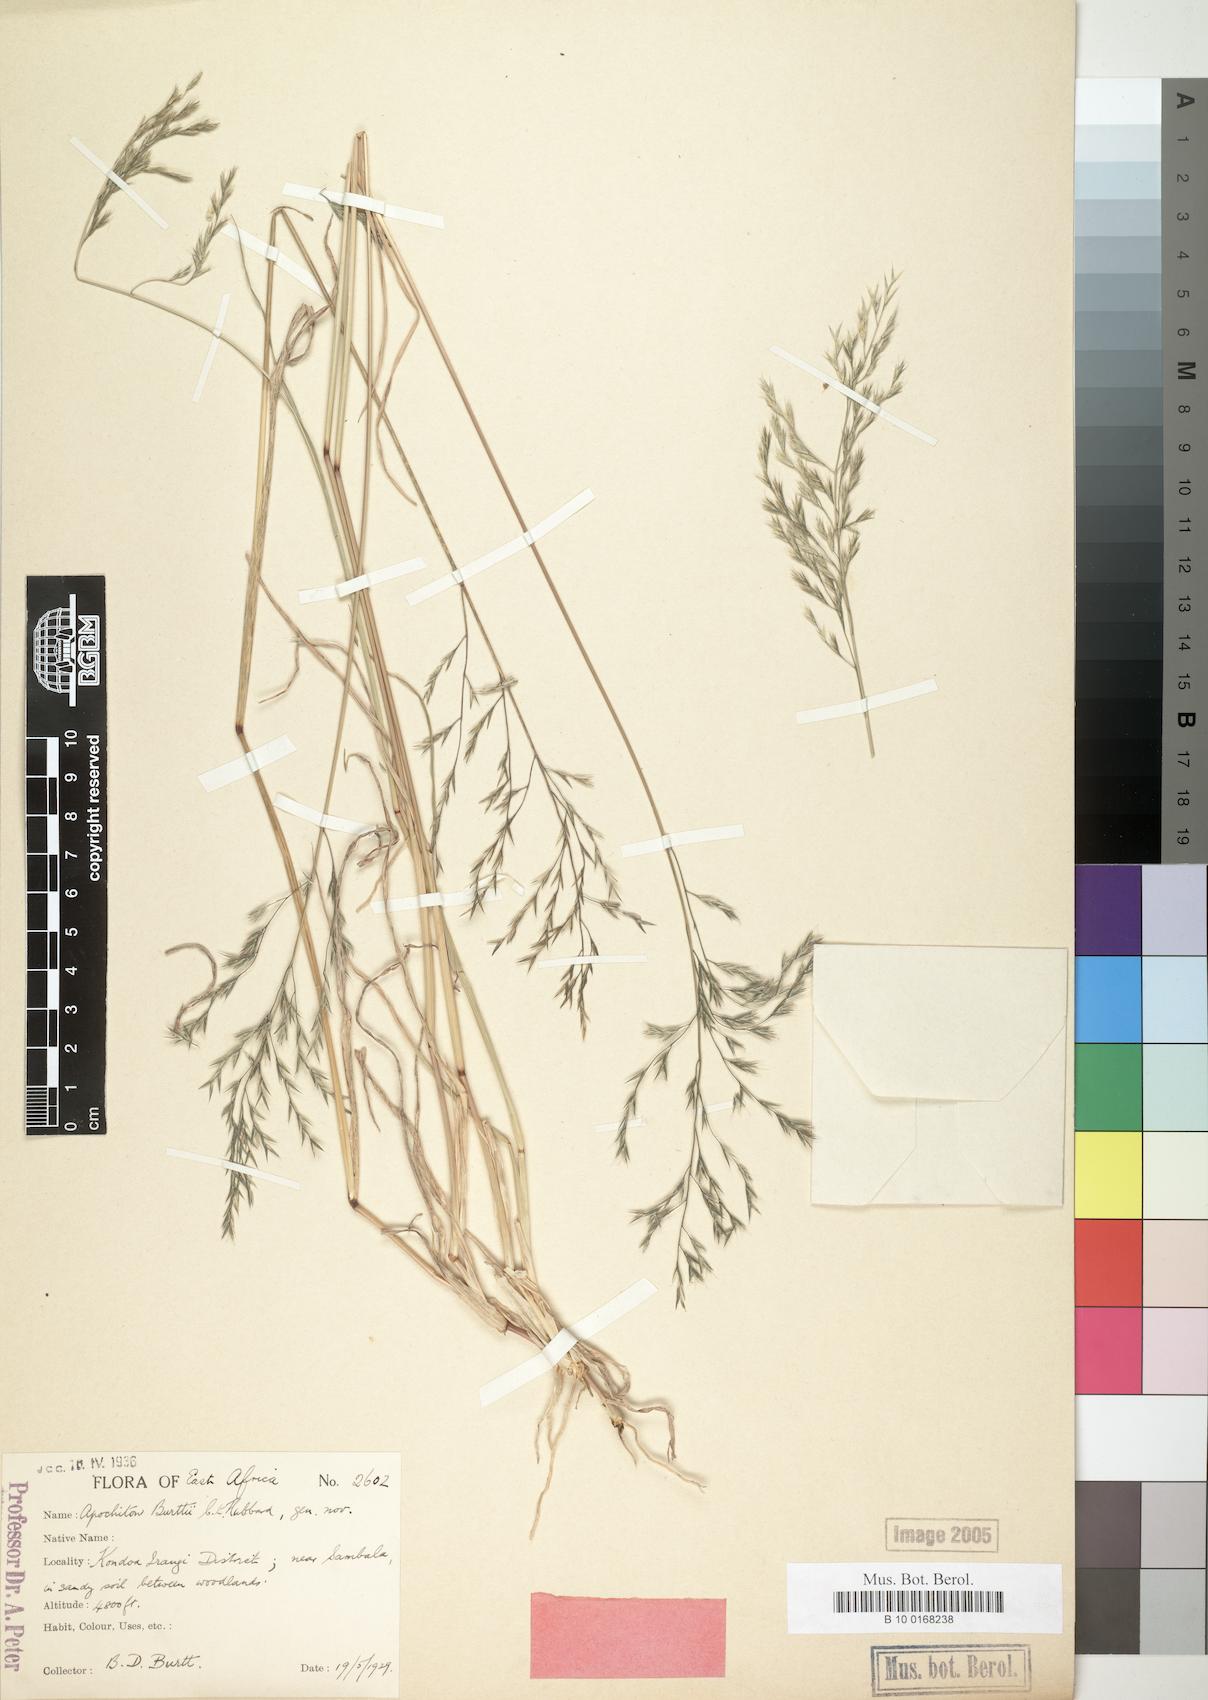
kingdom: Plantae
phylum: Tracheophyta
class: Liliopsida
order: Poales
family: Poaceae
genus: Apochiton
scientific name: Apochiton burttii
